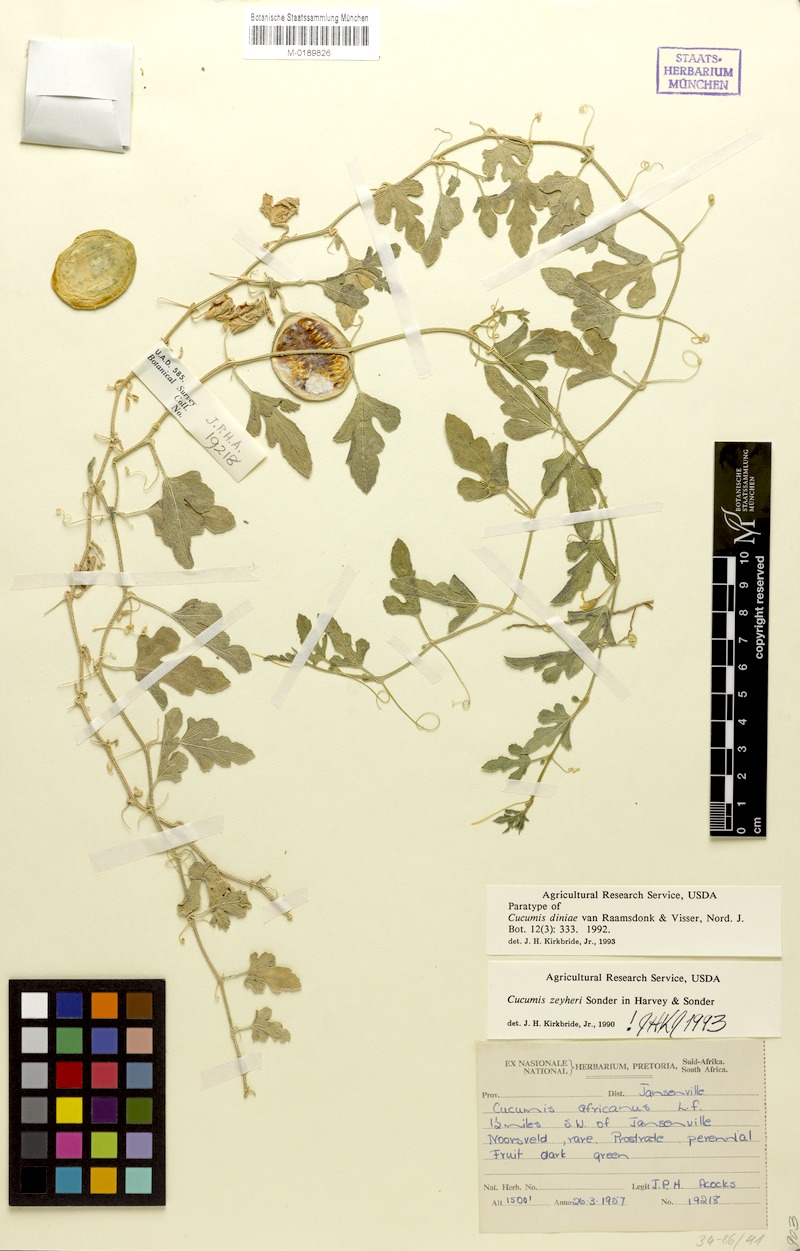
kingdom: Plantae
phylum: Tracheophyta
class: Magnoliopsida
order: Cucurbitales
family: Cucurbitaceae
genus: Cucumis
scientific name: Cucumis zeyheri
